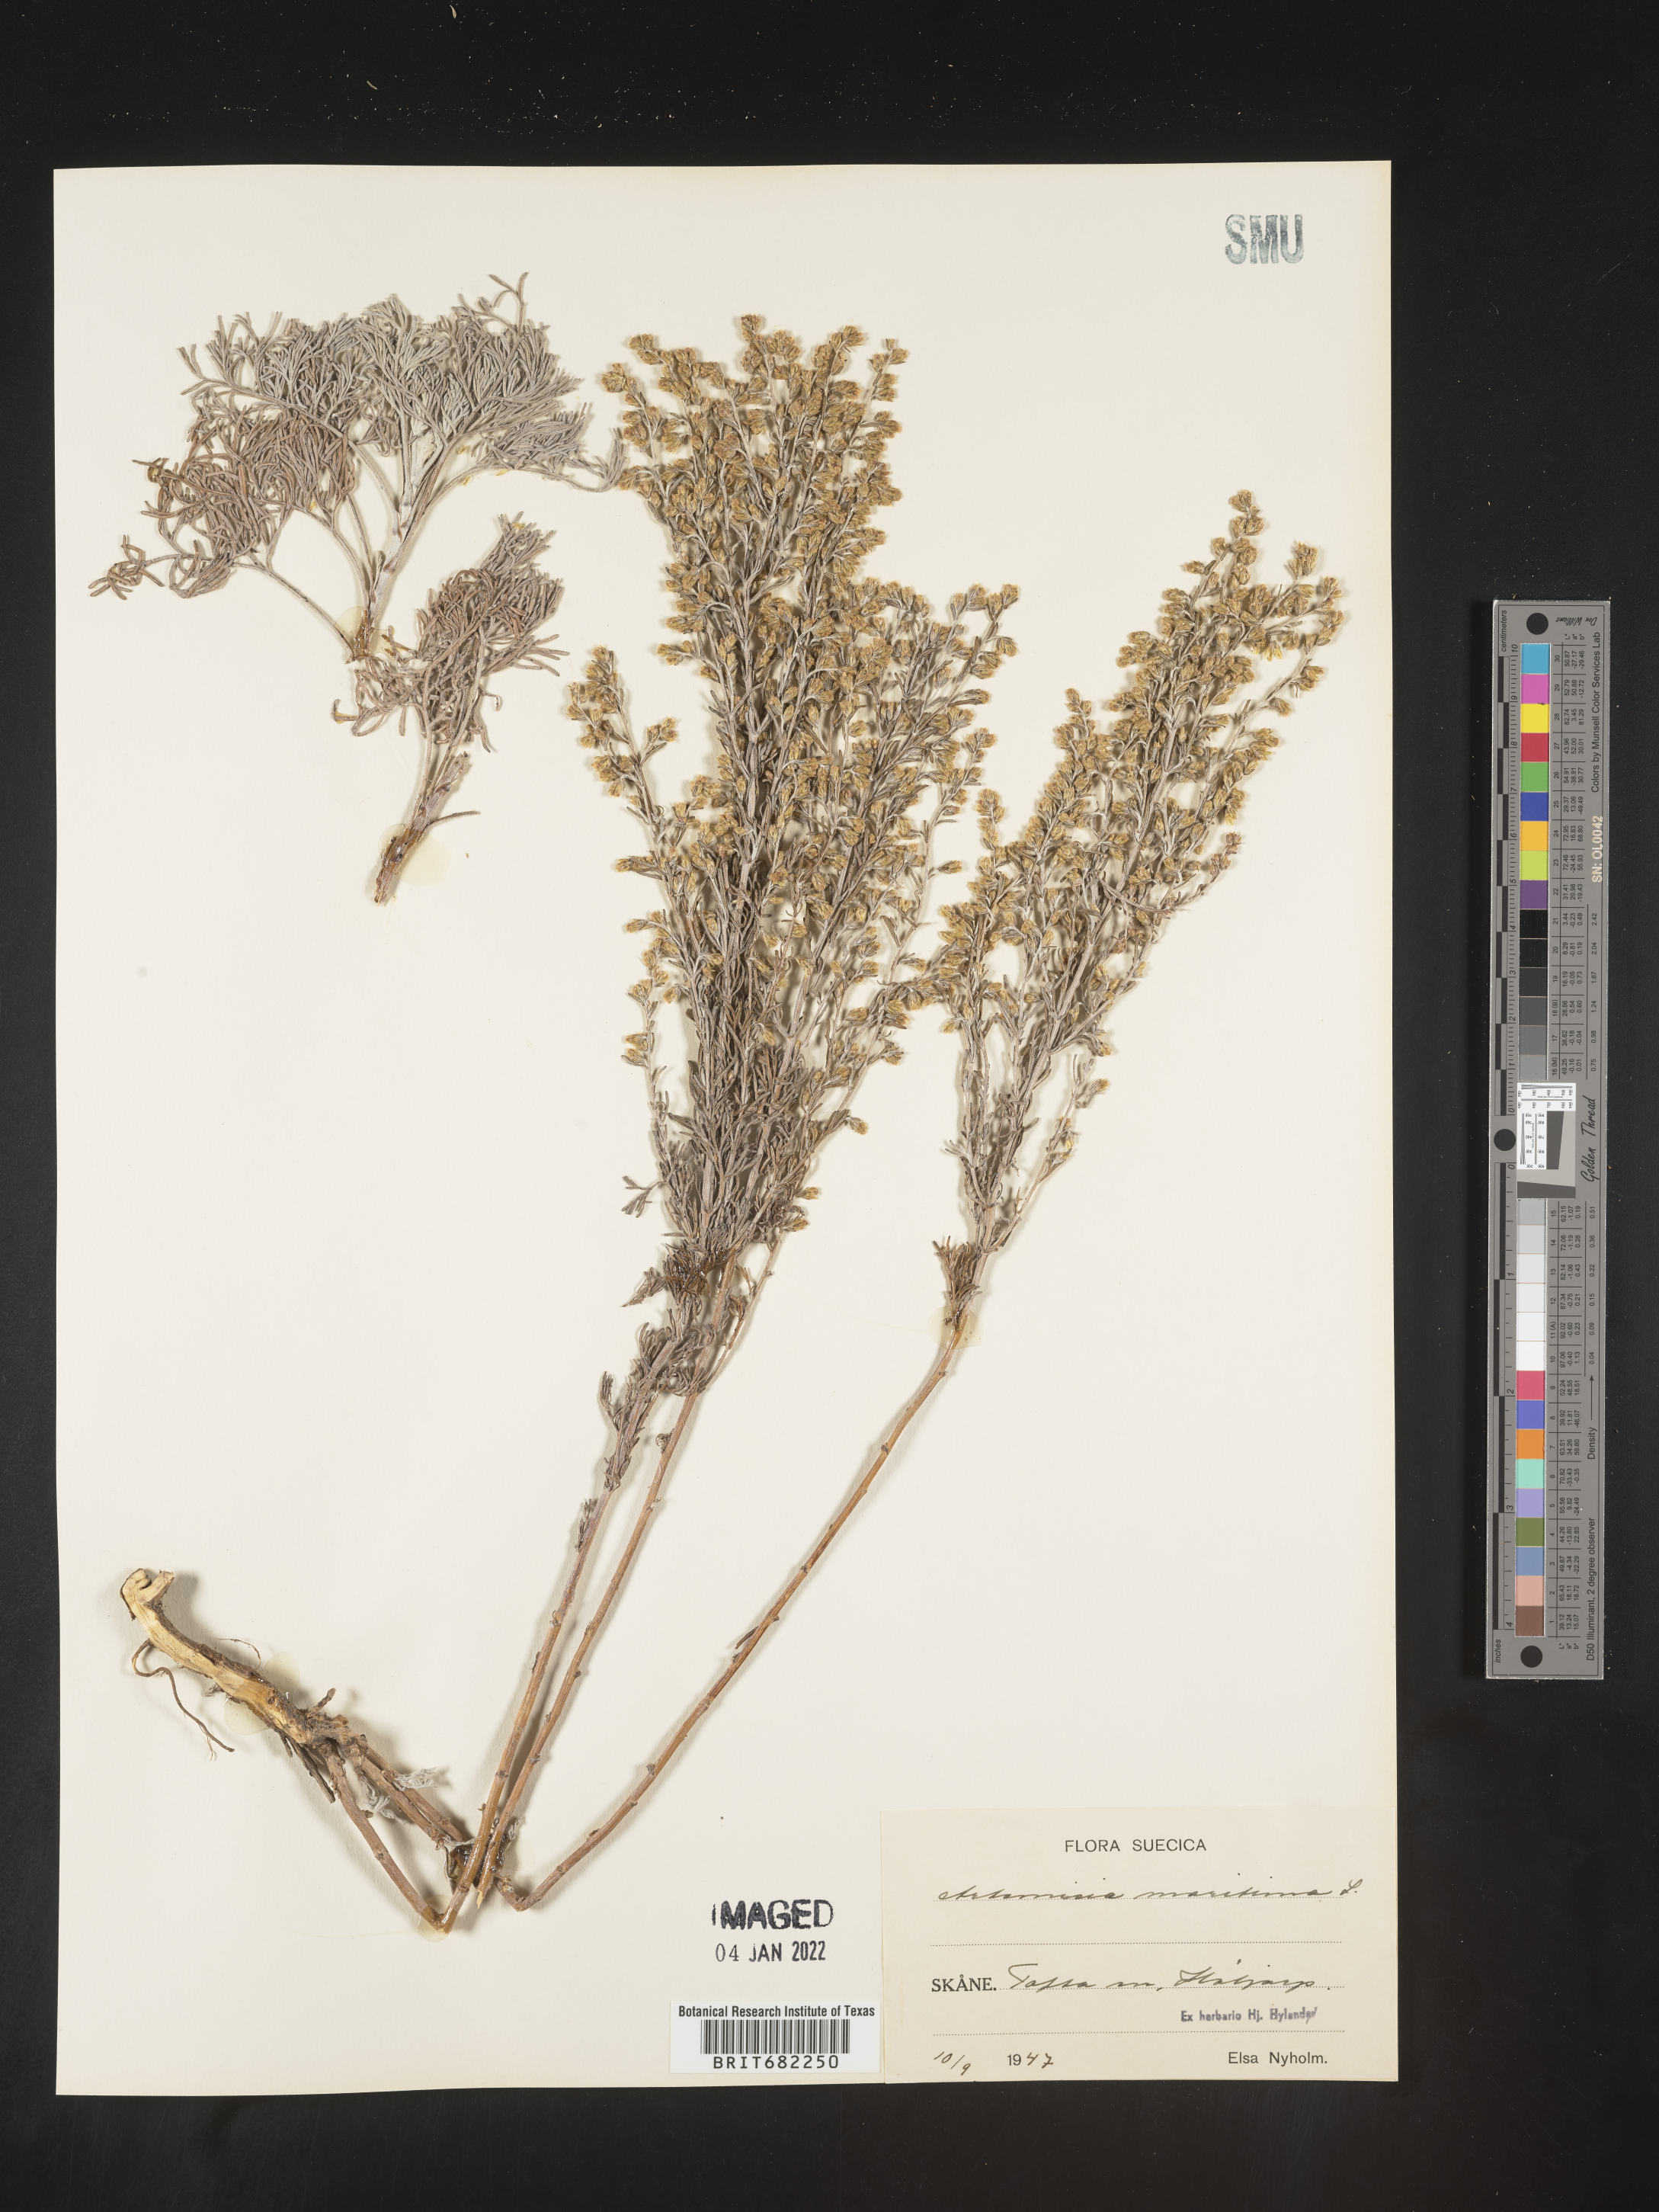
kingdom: Plantae
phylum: Tracheophyta
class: Magnoliopsida
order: Asterales
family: Asteraceae
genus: Artemisia
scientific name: Artemisia
